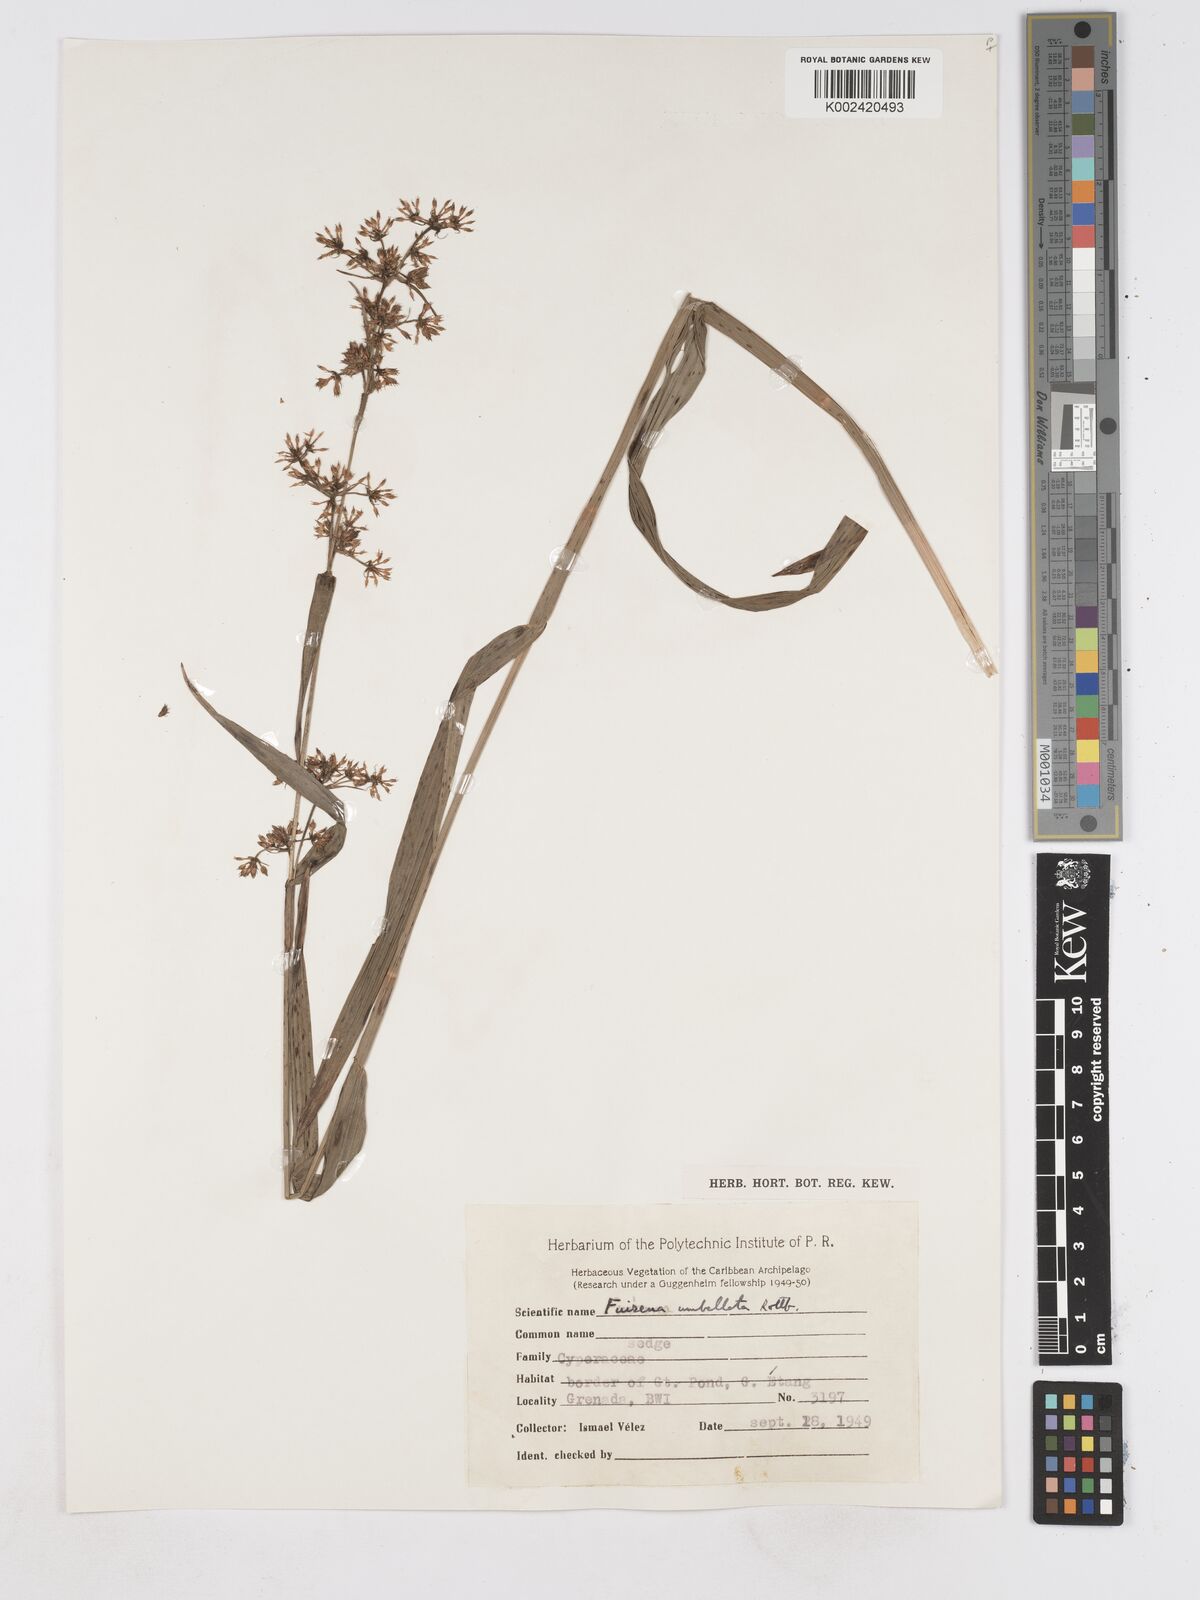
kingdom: Plantae
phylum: Tracheophyta
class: Liliopsida
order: Poales
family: Cyperaceae
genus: Fuirena
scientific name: Fuirena umbellata
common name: Yefen
